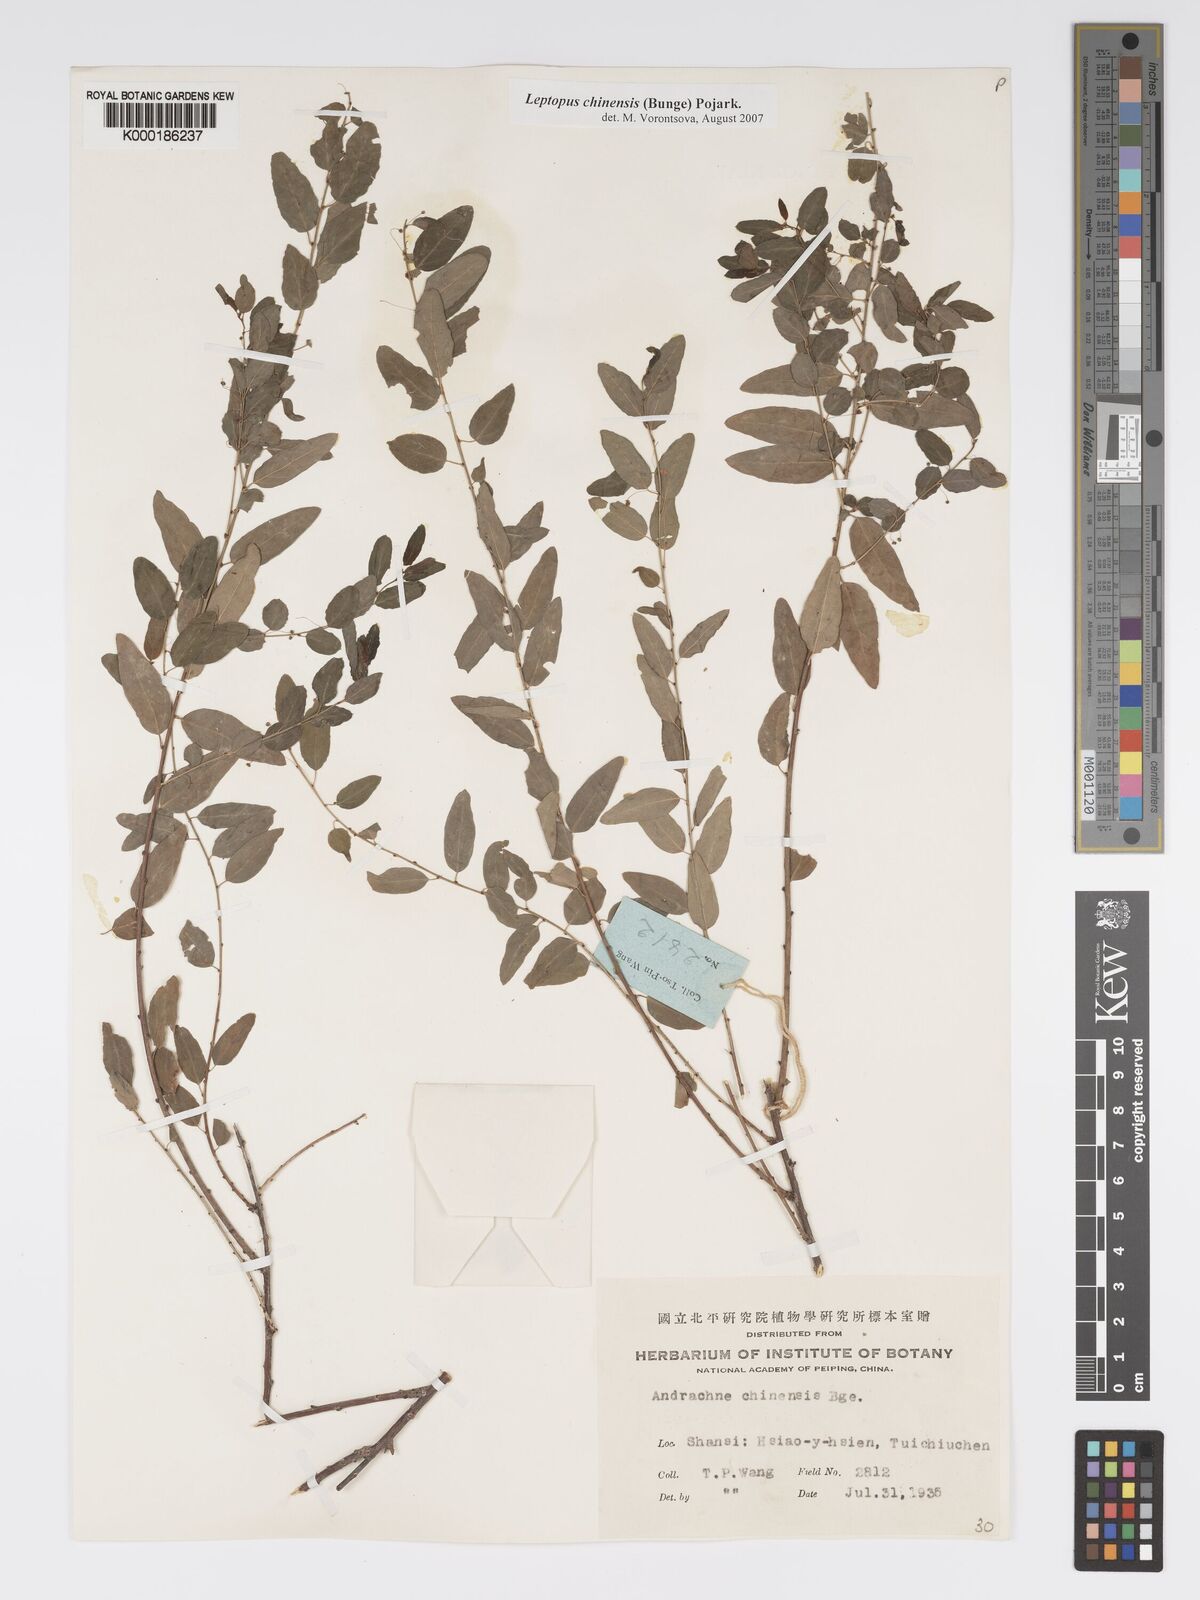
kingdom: Plantae
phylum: Tracheophyta
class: Magnoliopsida
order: Malpighiales
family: Phyllanthaceae
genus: Leptopus
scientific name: Leptopus chinensis
